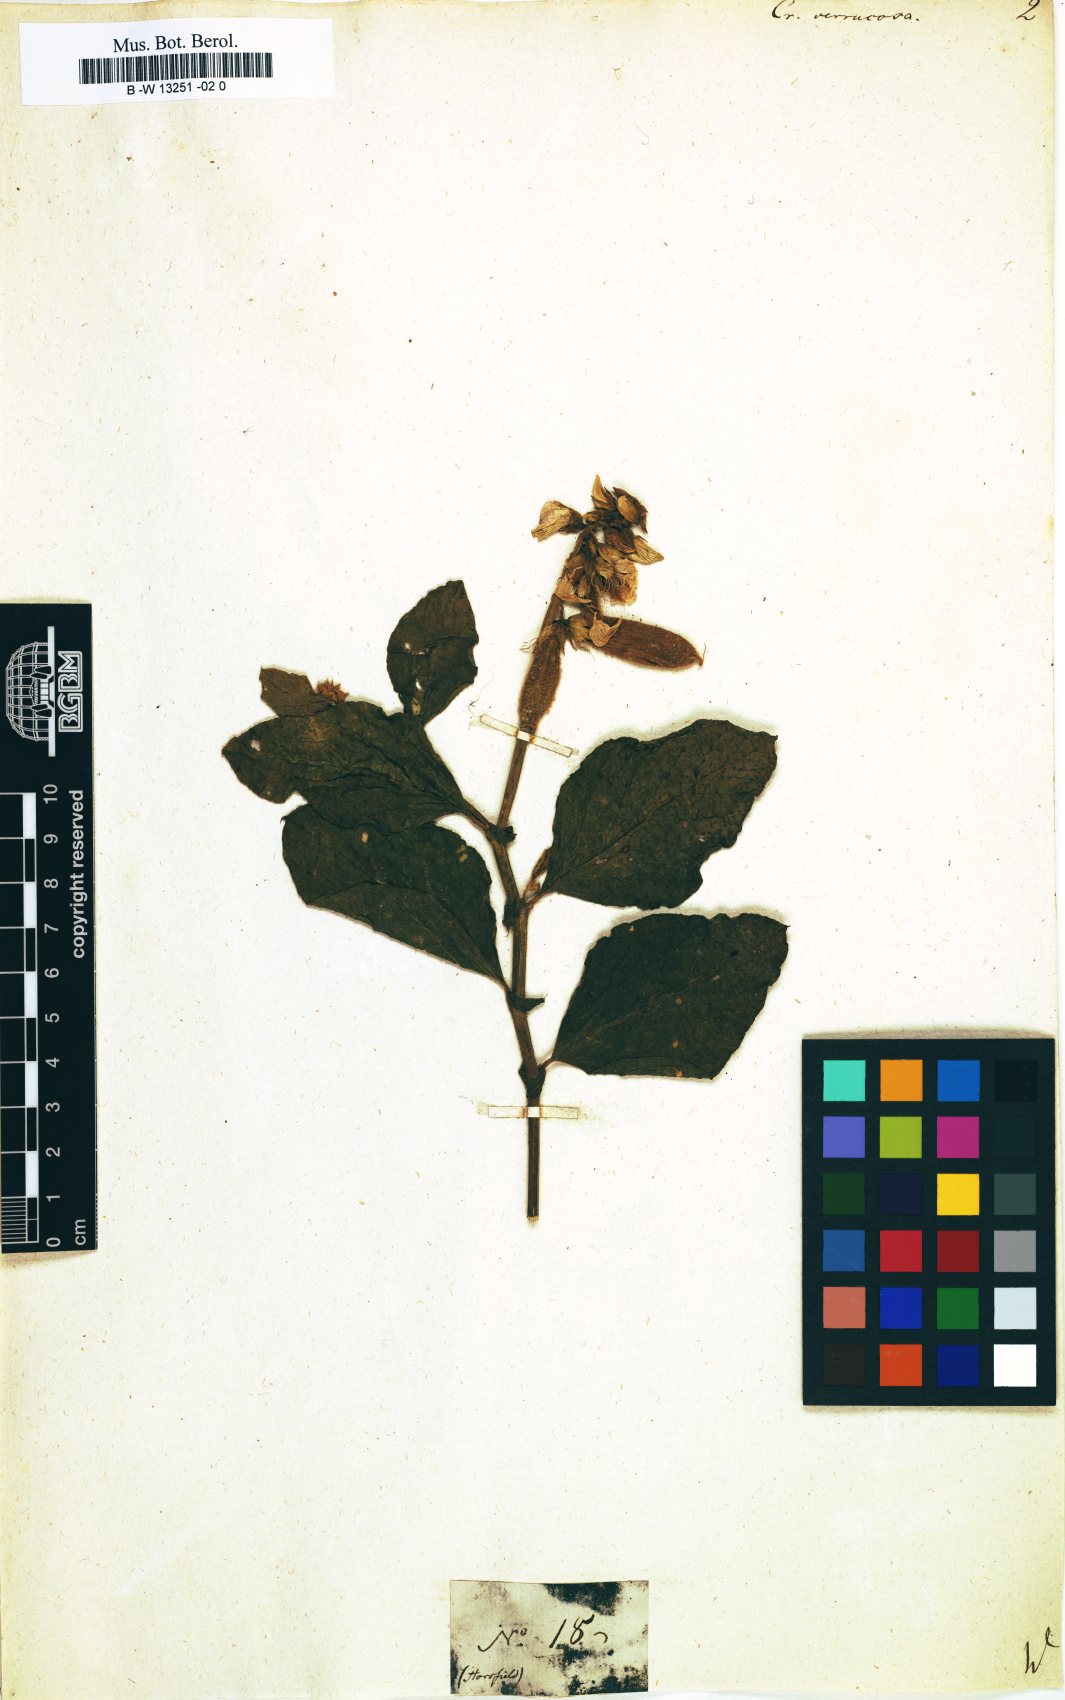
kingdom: Plantae
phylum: Tracheophyta
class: Magnoliopsida
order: Fabales
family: Fabaceae
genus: Crotalaria
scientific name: Crotalaria verrucosa
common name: Blue rattlesnake
